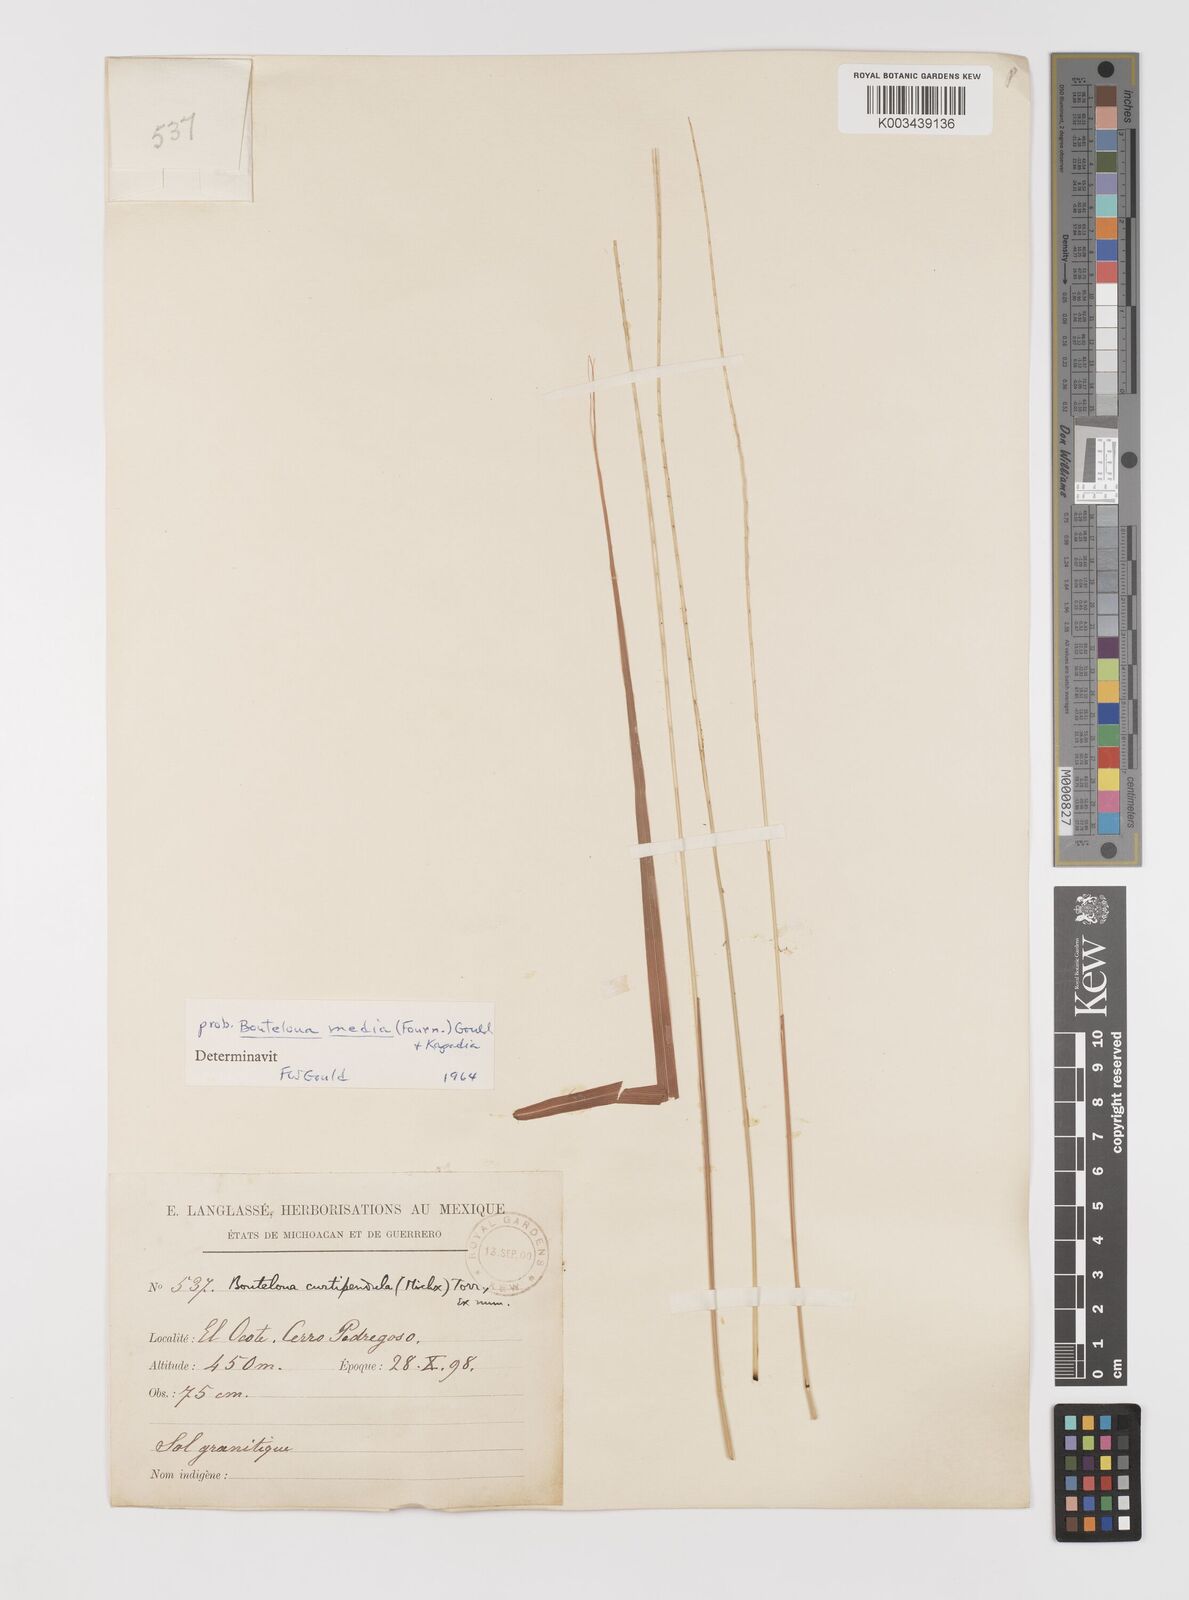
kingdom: Plantae
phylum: Tracheophyta
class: Liliopsida
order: Poales
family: Poaceae
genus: Bouteloua
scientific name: Bouteloua media
